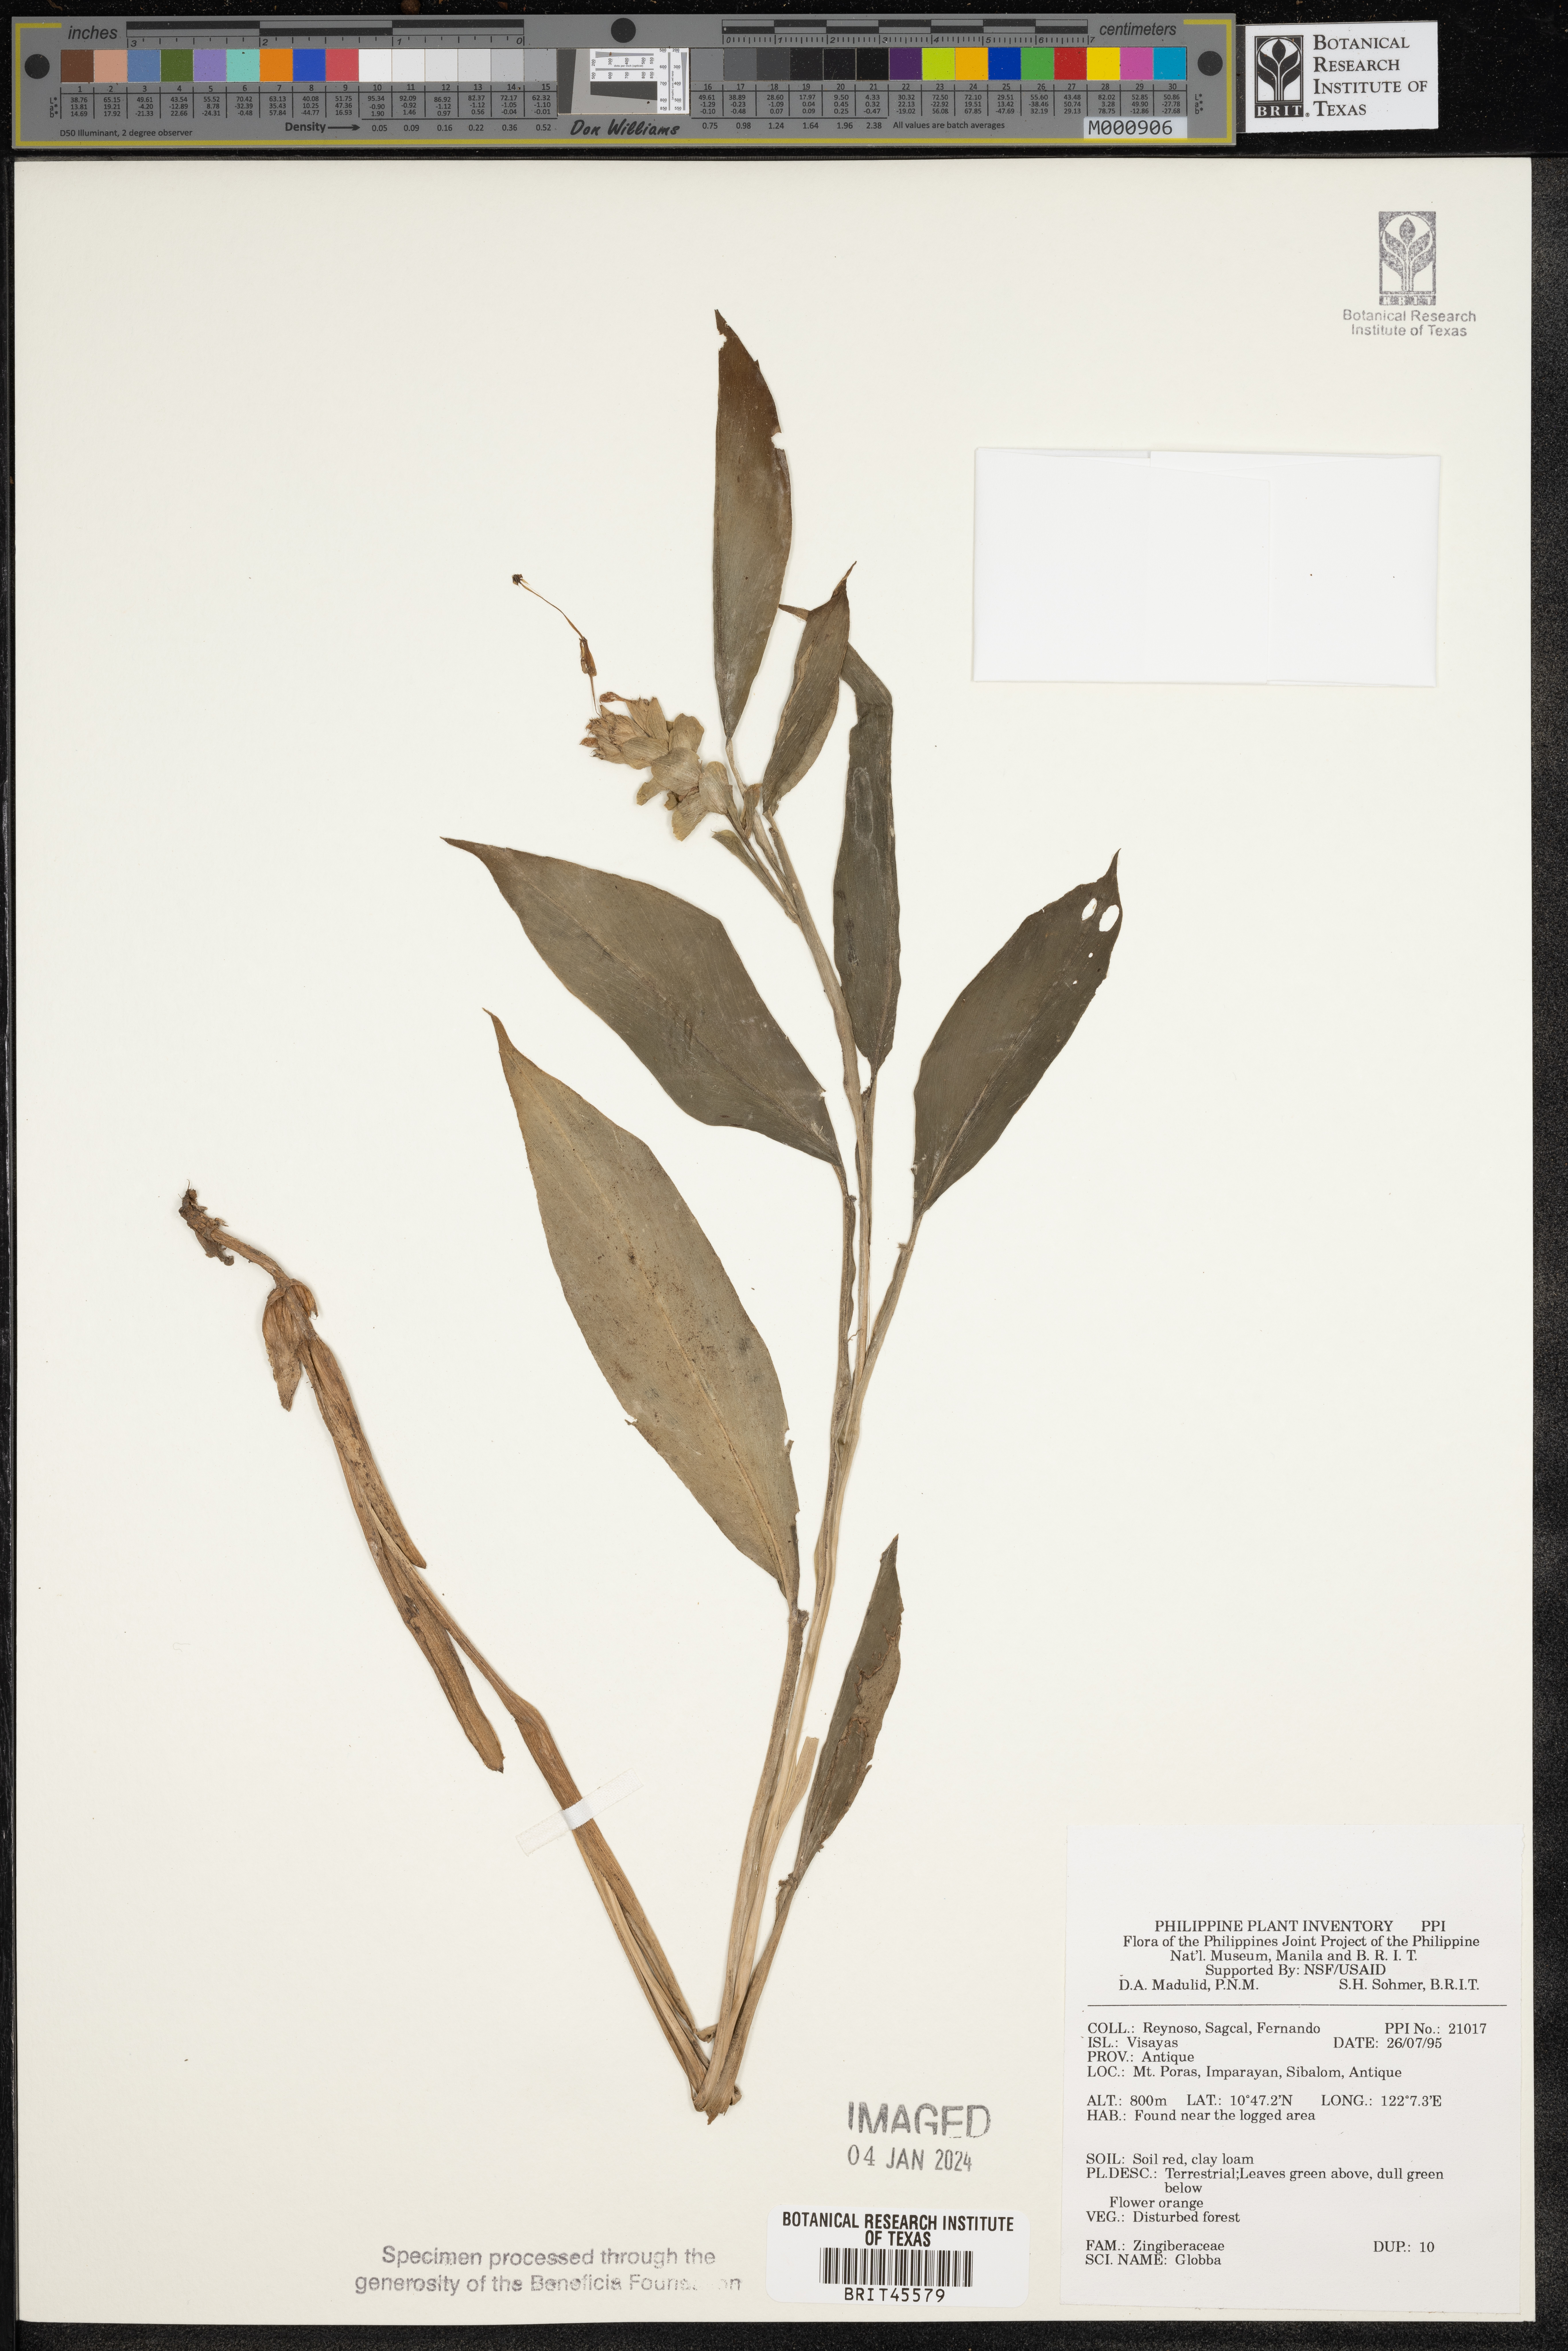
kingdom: Plantae
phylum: Tracheophyta
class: Liliopsida
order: Zingiberales
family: Zingiberaceae
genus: Globba
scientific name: Globba
